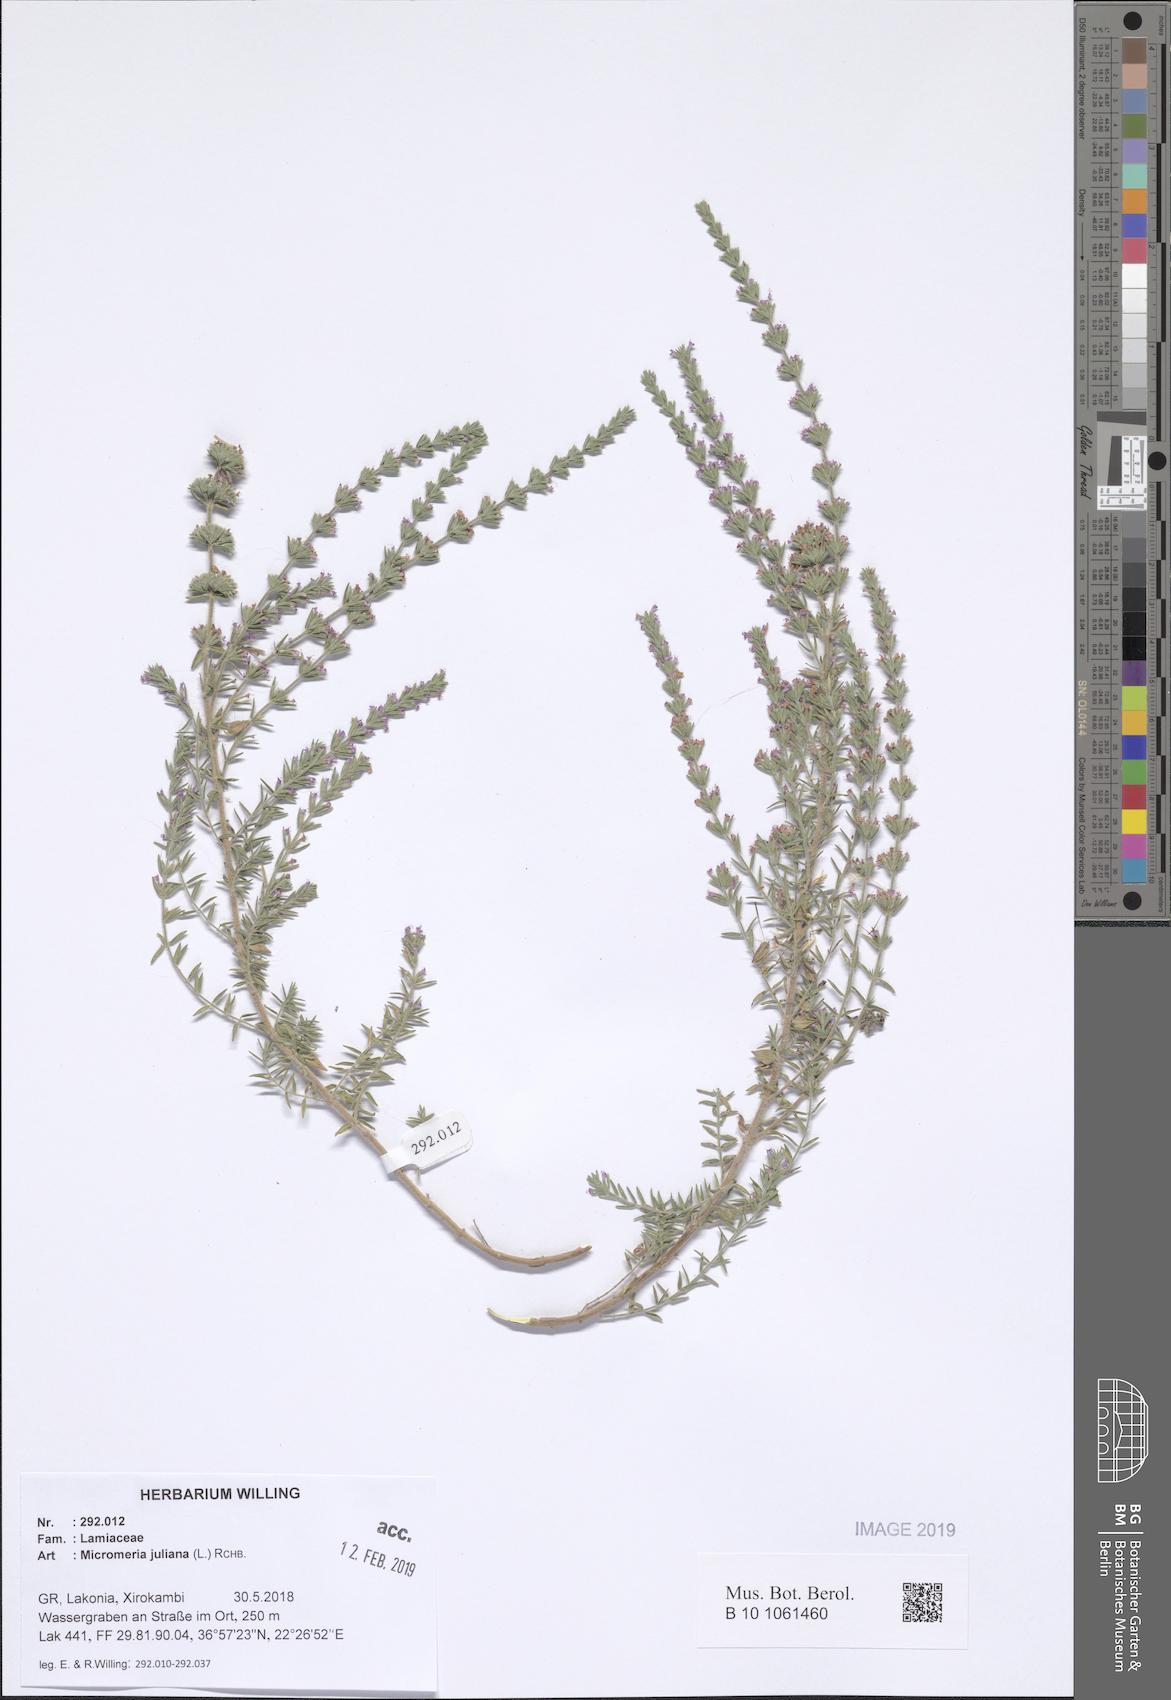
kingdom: Plantae
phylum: Tracheophyta
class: Magnoliopsida
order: Lamiales
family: Lamiaceae
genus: Micromeria
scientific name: Micromeria juliana
